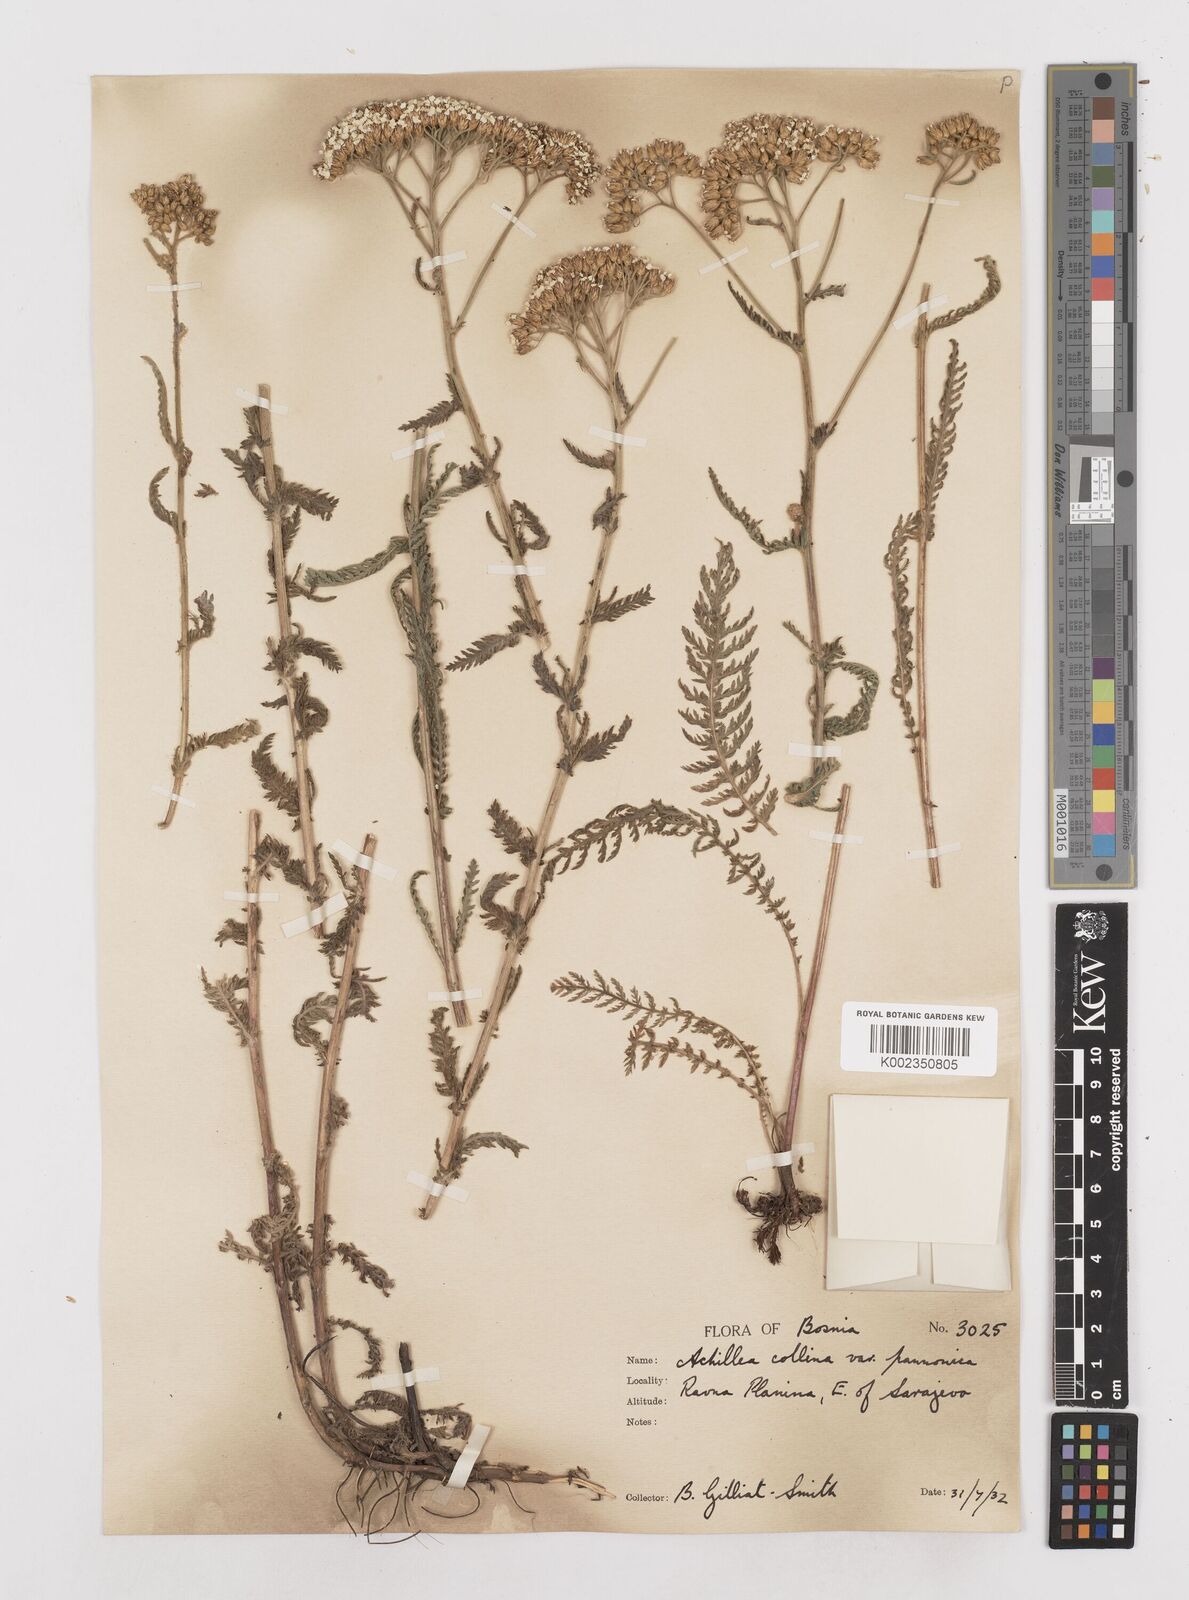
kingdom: Plantae
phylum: Tracheophyta
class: Magnoliopsida
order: Asterales
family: Asteraceae
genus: Achillea
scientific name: Achillea distans
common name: Tall yarrow
